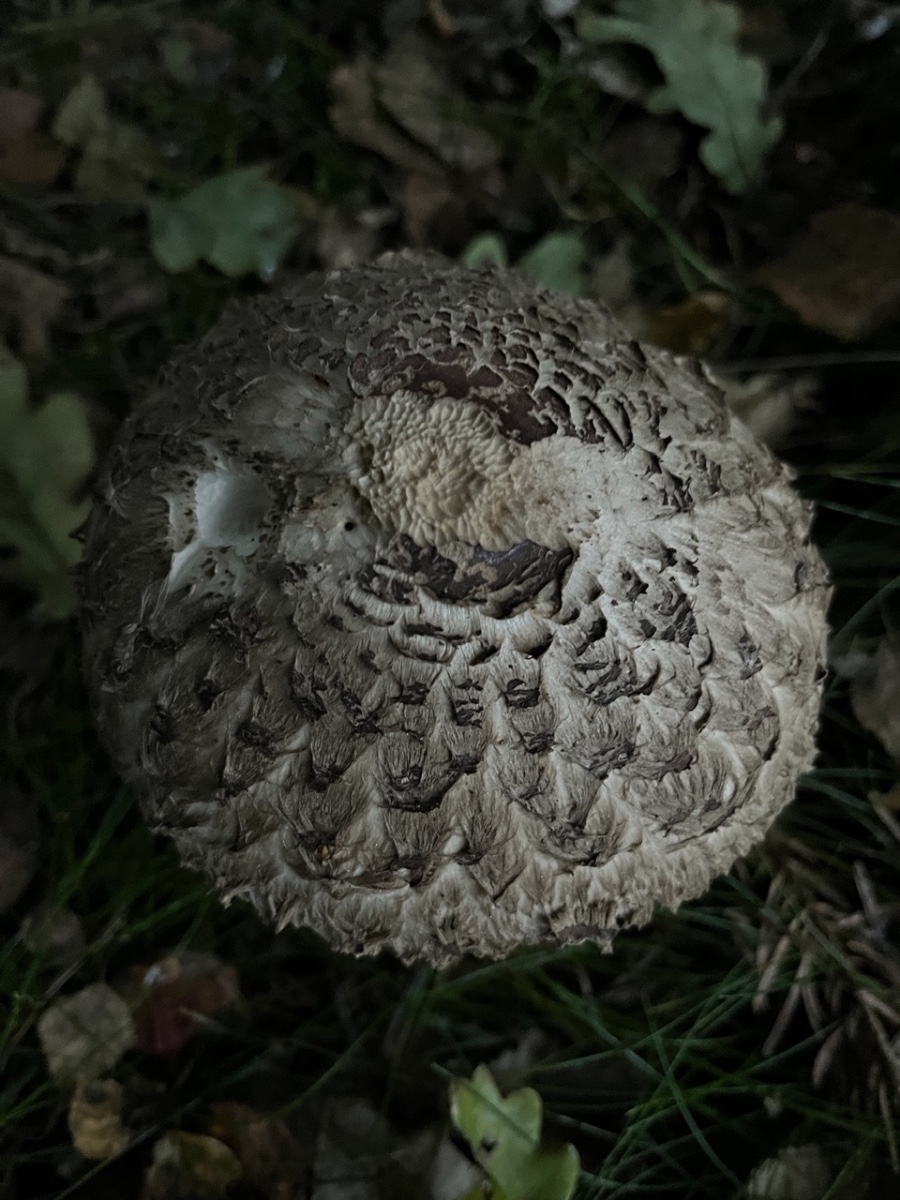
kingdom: Fungi
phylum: Basidiomycota
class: Agaricomycetes
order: Agaricales
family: Agaricaceae
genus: Chlorophyllum
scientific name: Chlorophyllum olivieri
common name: almindelig rabarberhat
